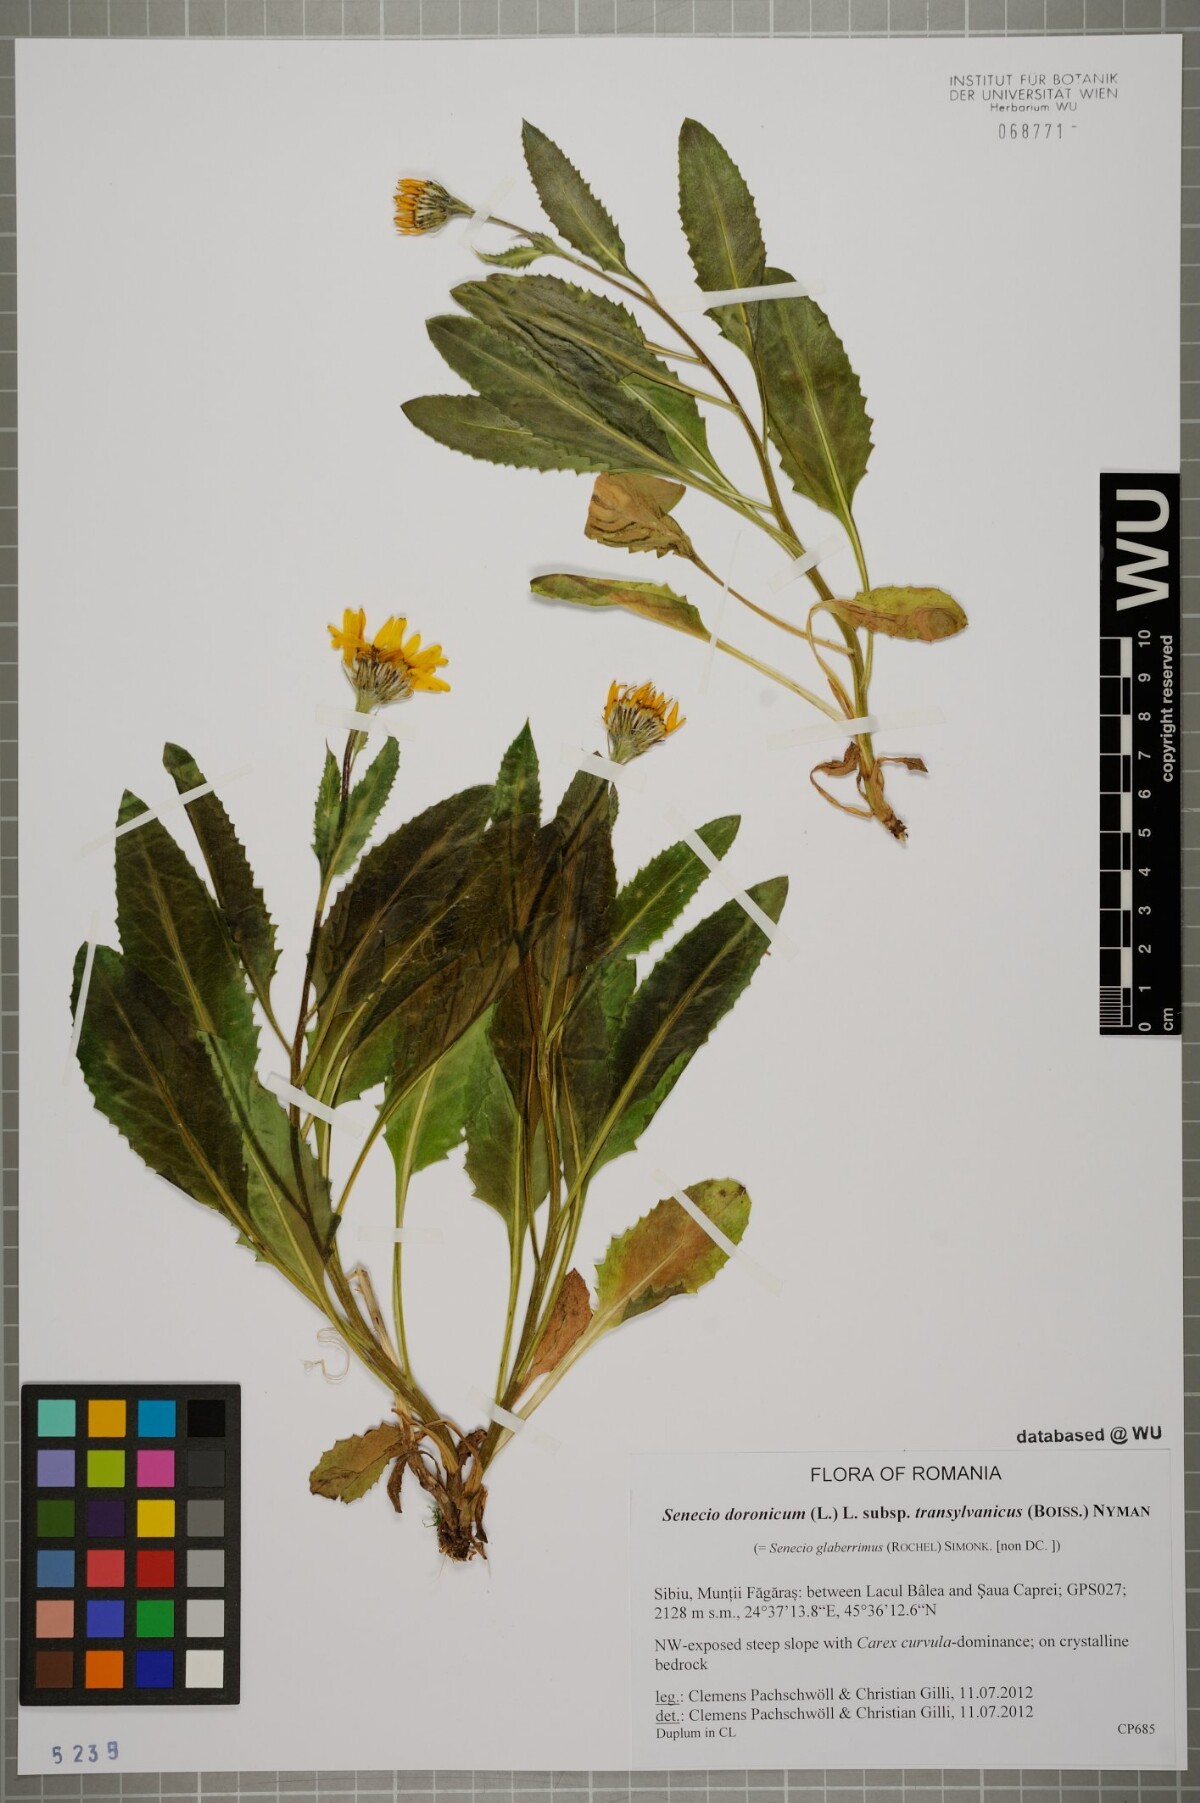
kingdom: Plantae
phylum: Tracheophyta
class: Magnoliopsida
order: Asterales
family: Asteraceae
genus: Senecio
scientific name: Senecio transylvanicus
